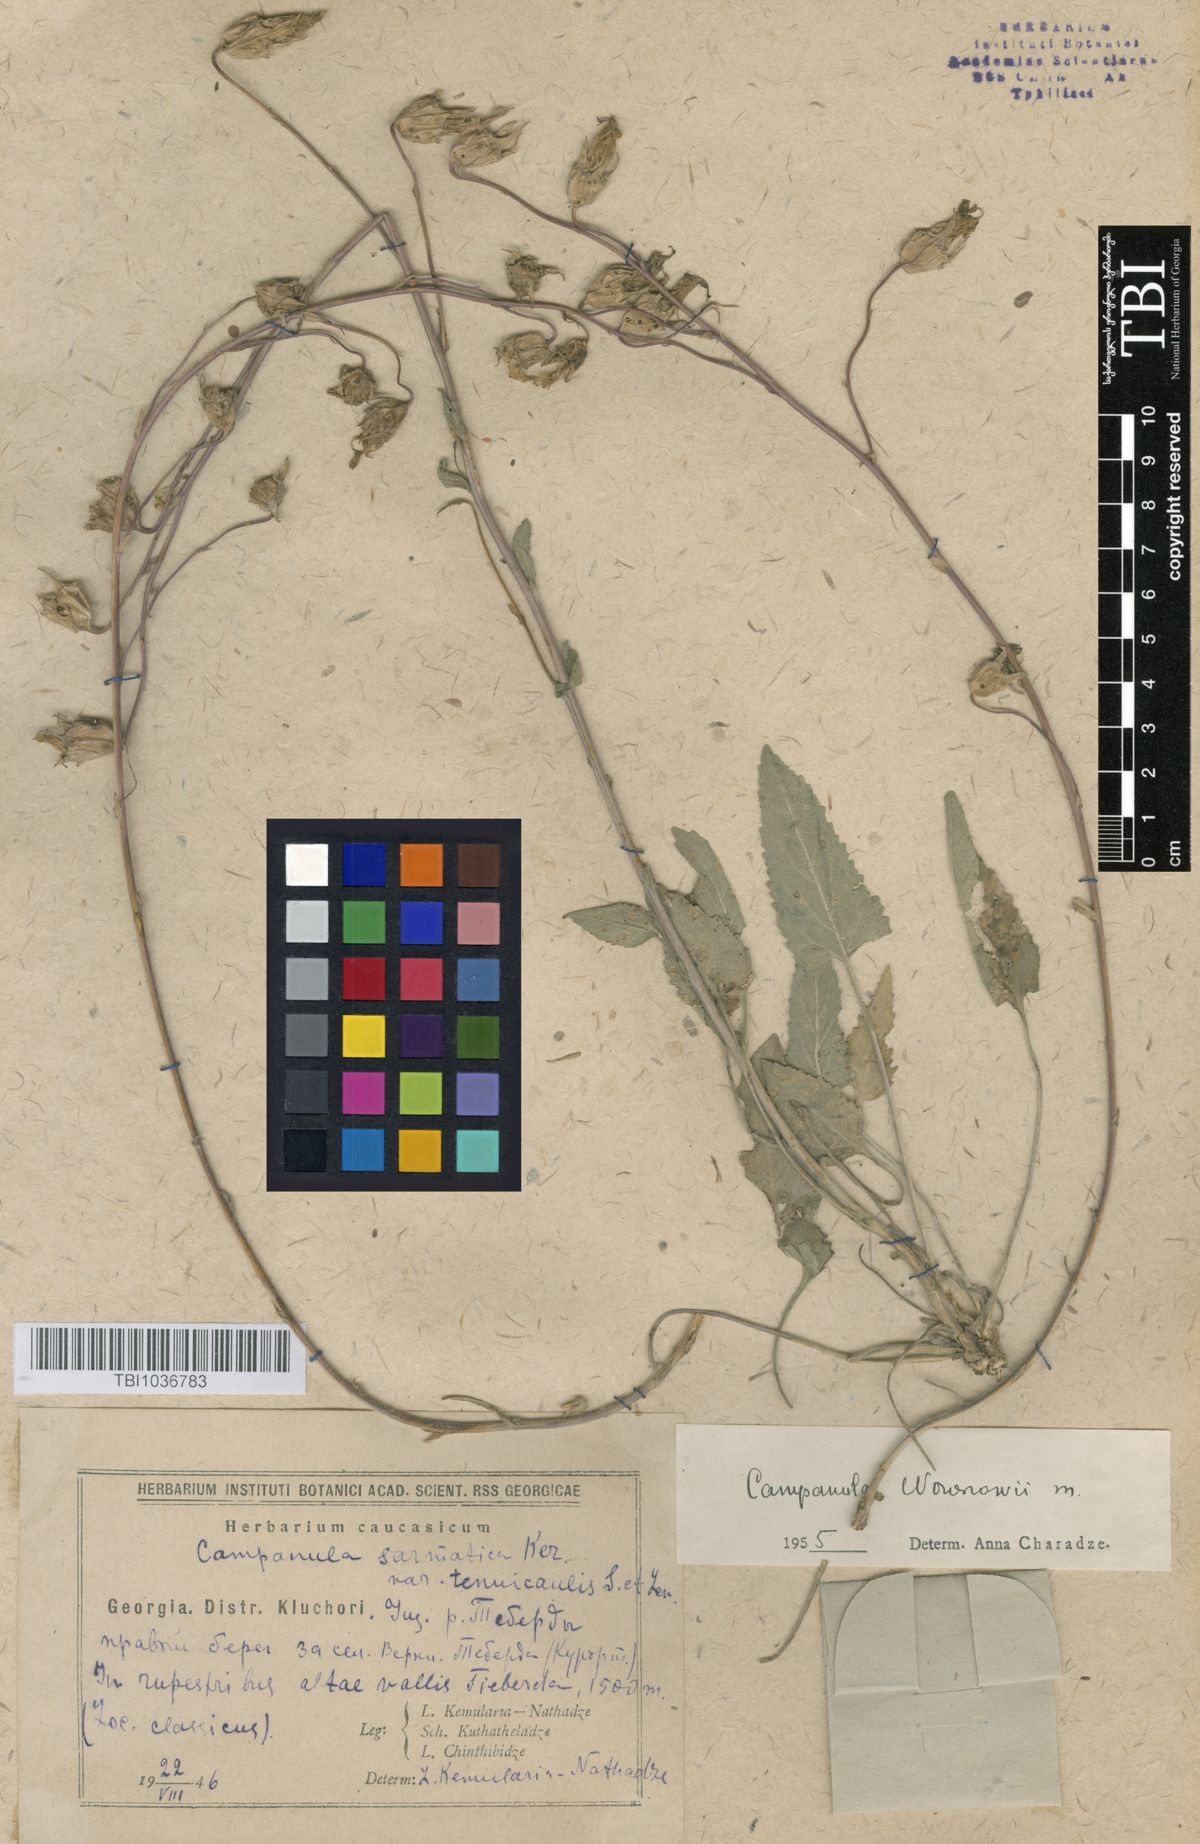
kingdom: Plantae
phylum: Tracheophyta
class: Magnoliopsida
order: Asterales
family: Campanulaceae
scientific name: Campanulaceae
